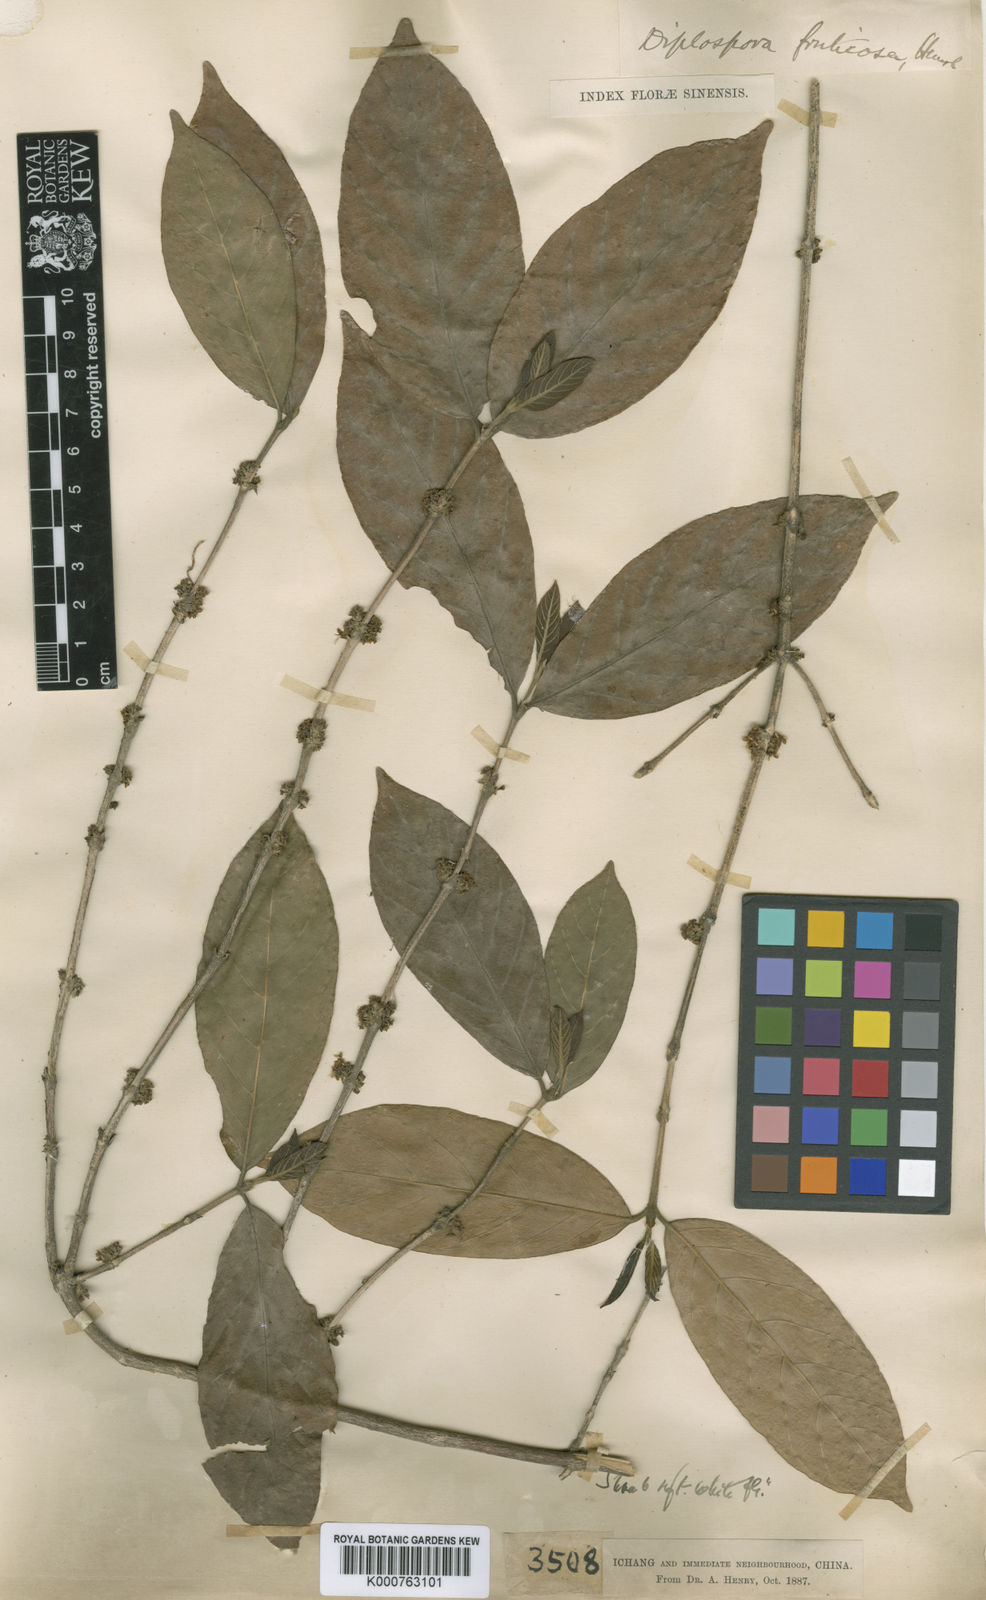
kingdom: Plantae
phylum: Tracheophyta
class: Magnoliopsida
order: Gentianales
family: Rubiaceae
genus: Diplospora
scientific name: Diplospora fruticosa
